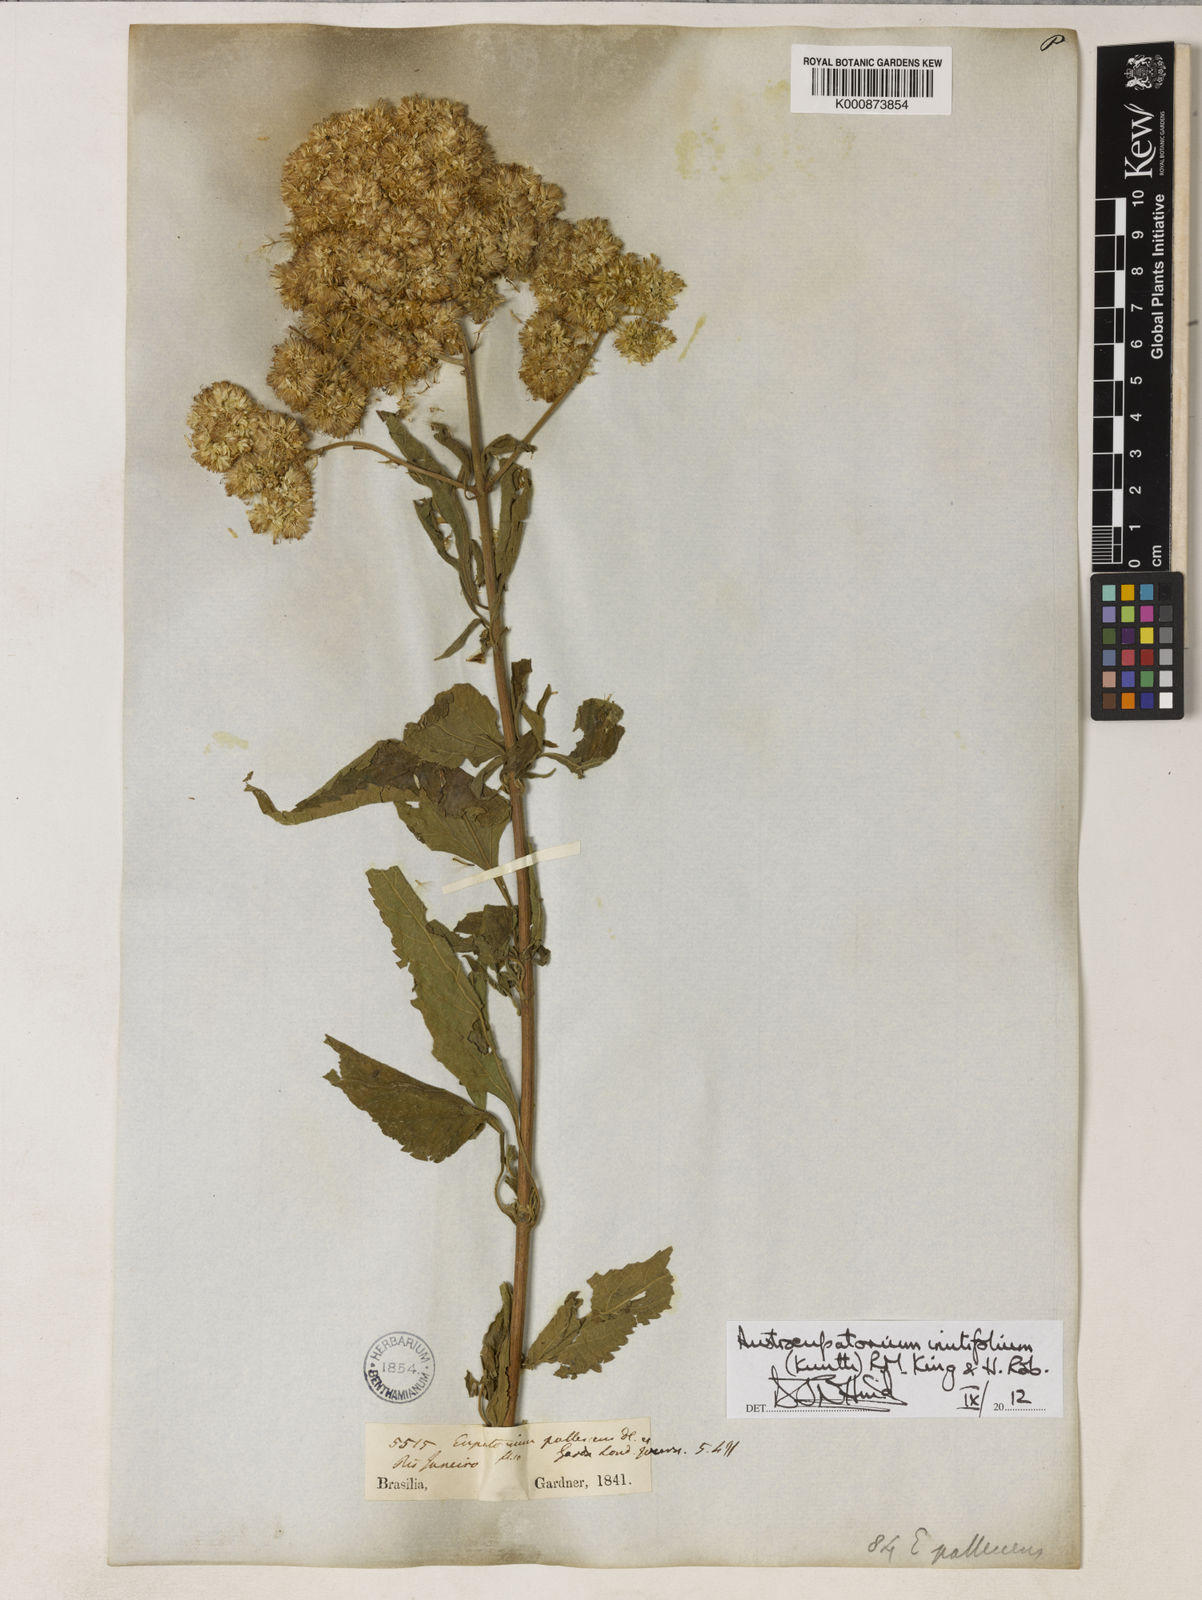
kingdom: Plantae
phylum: Tracheophyta
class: Magnoliopsida
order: Asterales
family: Asteraceae
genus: Austroeupatorium
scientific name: Austroeupatorium inulifolium
